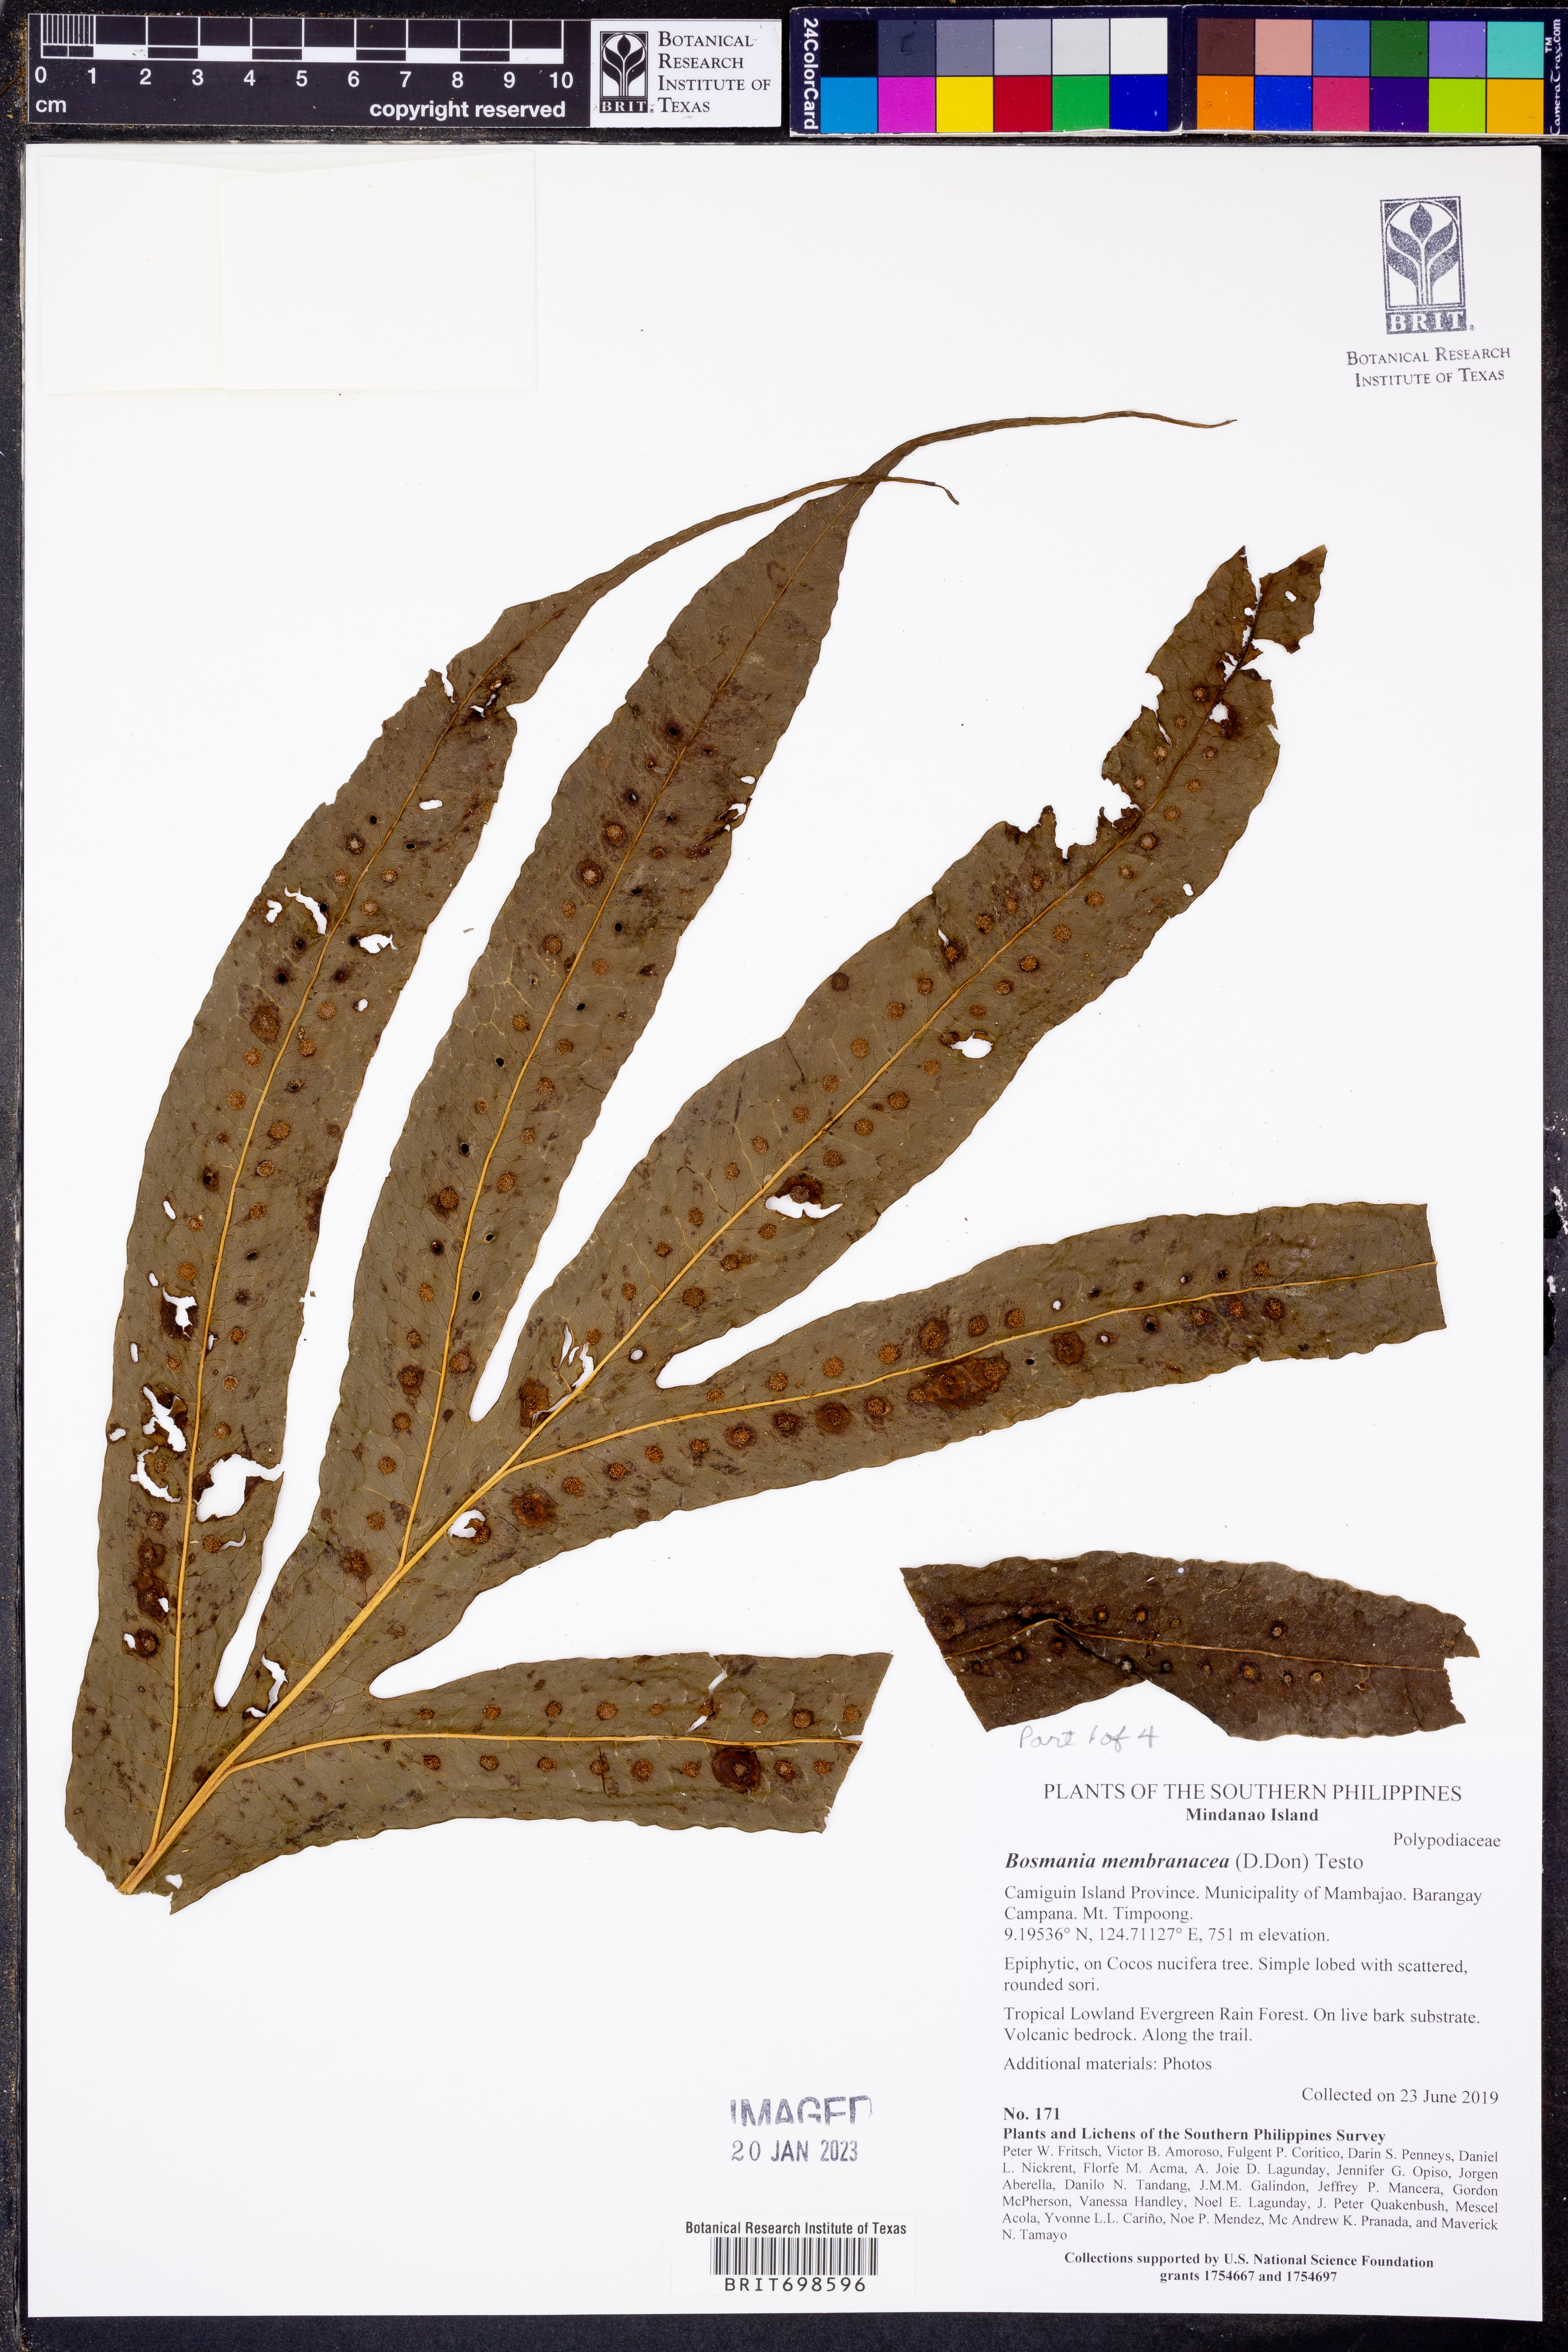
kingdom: Plantae
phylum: Tracheophyta
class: Polypodiopsida
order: Polypodiales
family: Polypodiaceae
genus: Bosmania
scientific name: Bosmania membranacea
